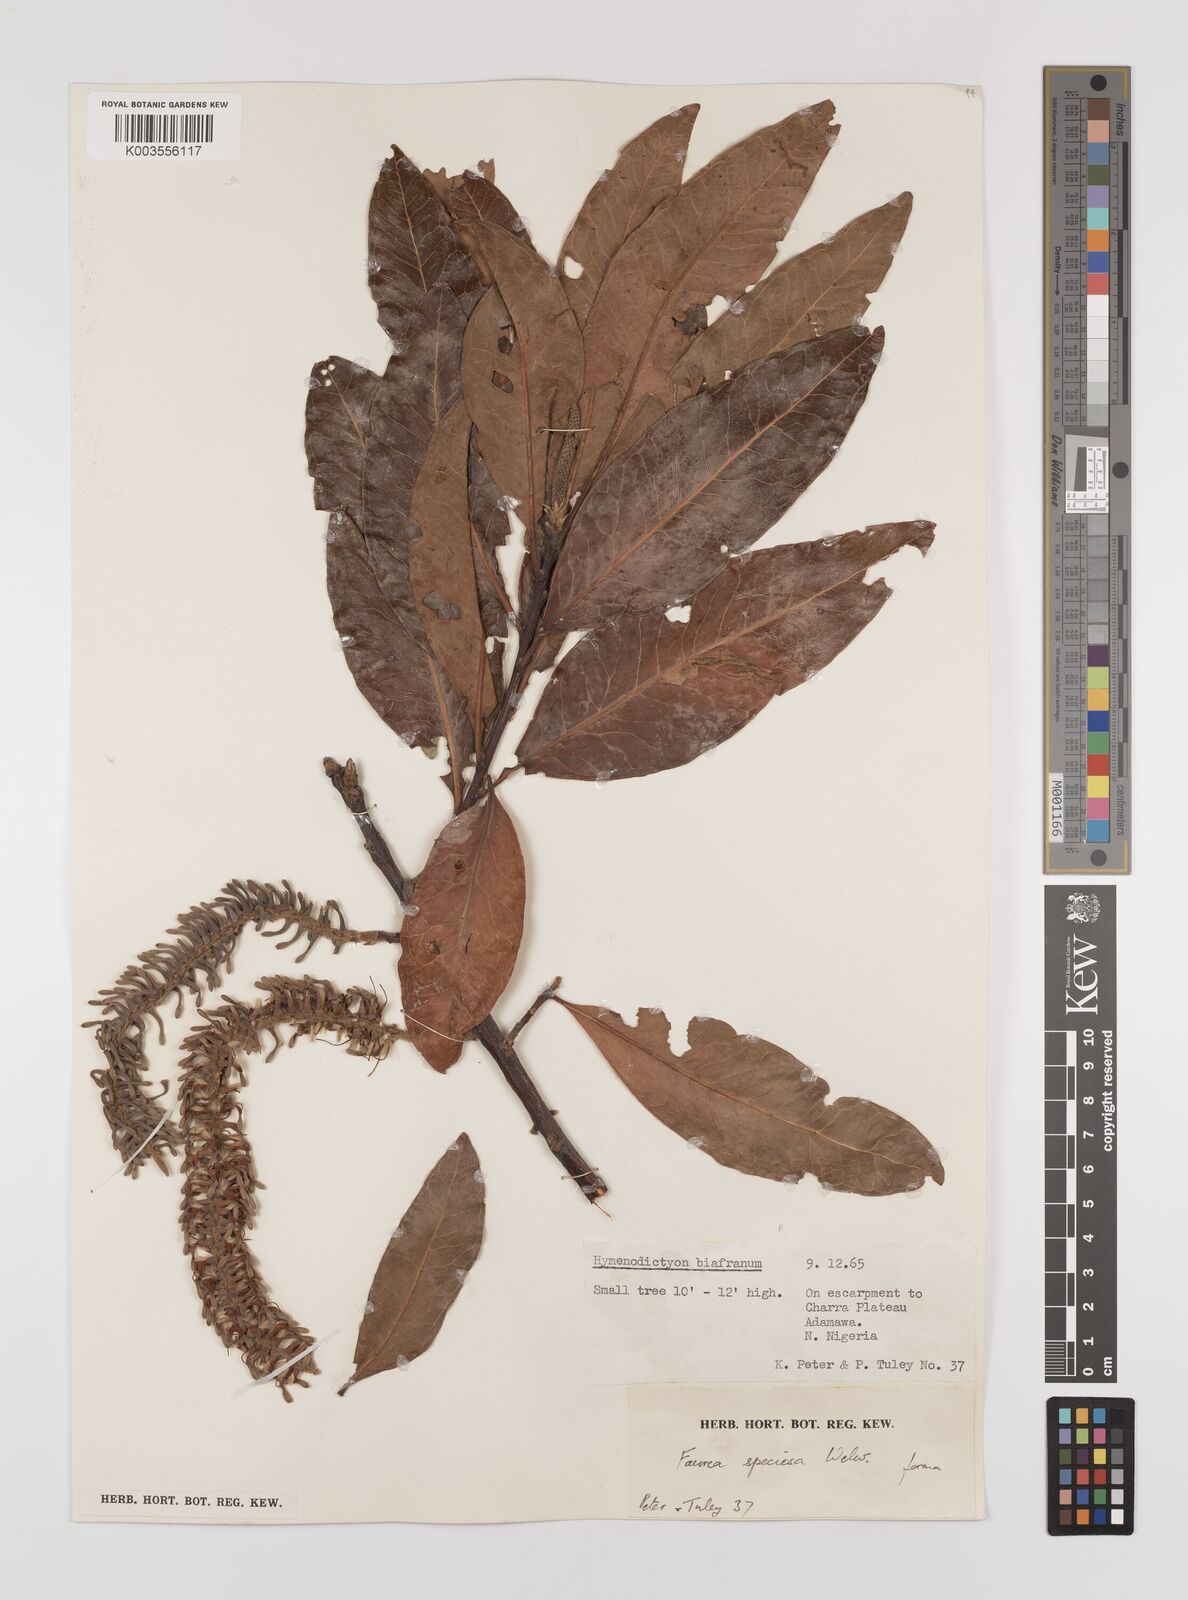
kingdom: Plantae
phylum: Tracheophyta
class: Magnoliopsida
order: Proteales
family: Proteaceae
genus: Faurea
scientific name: Faurea rochetiana
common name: Broad-leaved beech
